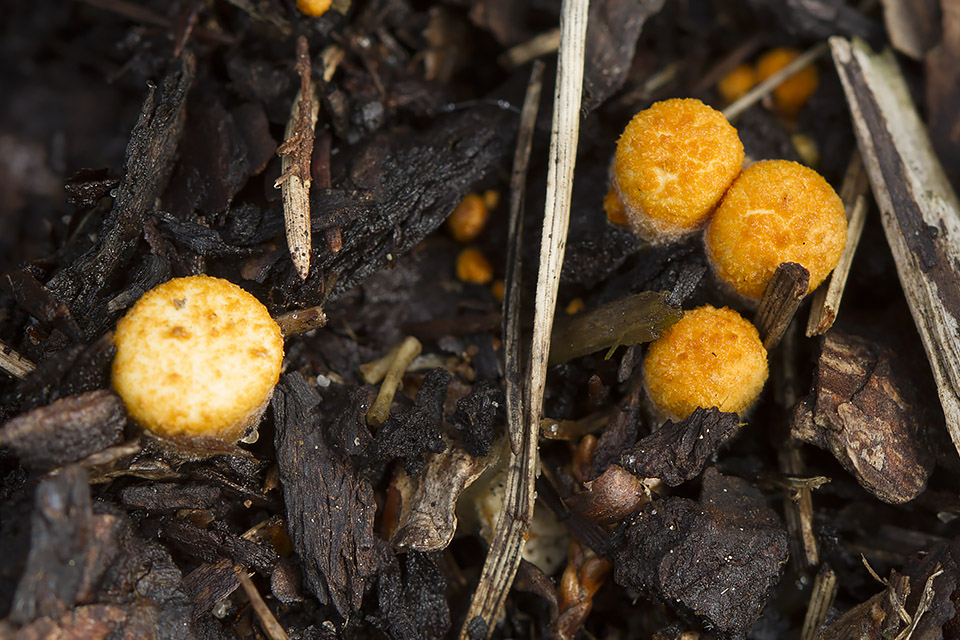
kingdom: Fungi
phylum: Basidiomycota
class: Agaricomycetes
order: Agaricales
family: Nidulariaceae
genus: Crucibulum
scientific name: Crucibulum crucibuliforme
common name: krukkesvamp
